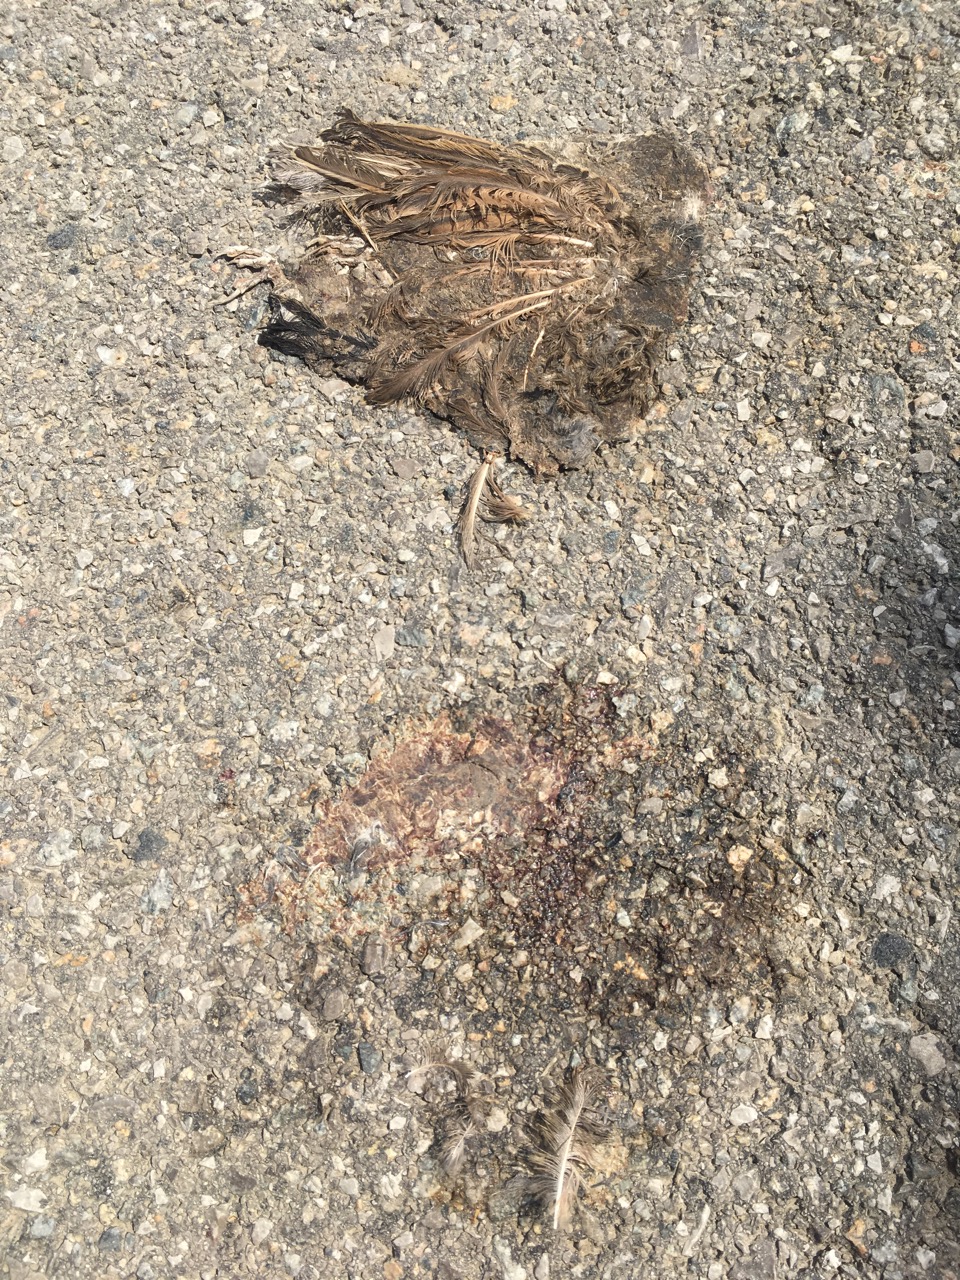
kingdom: Animalia
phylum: Chordata
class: Aves
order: Passeriformes
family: Passeridae
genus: Passer
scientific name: Passer
